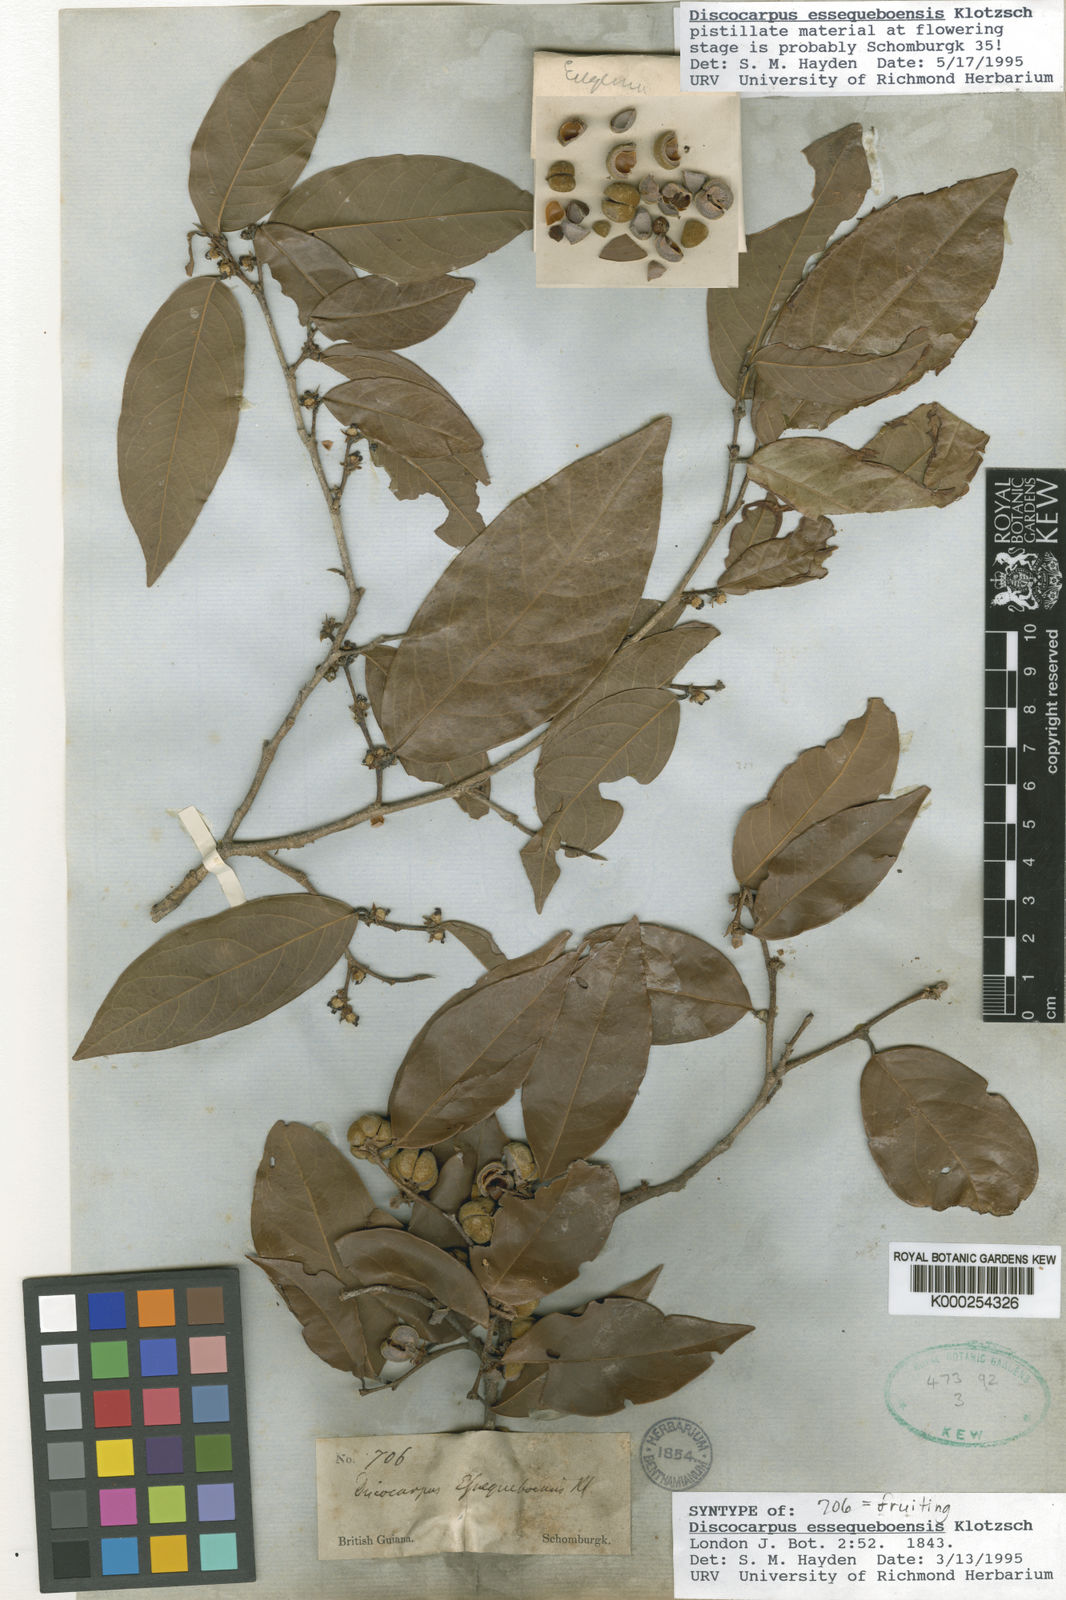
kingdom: Plantae
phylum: Tracheophyta
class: Magnoliopsida
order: Malpighiales
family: Phyllanthaceae
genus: Discocarpus
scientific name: Discocarpus essequeboensis
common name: Sqaure-wood
